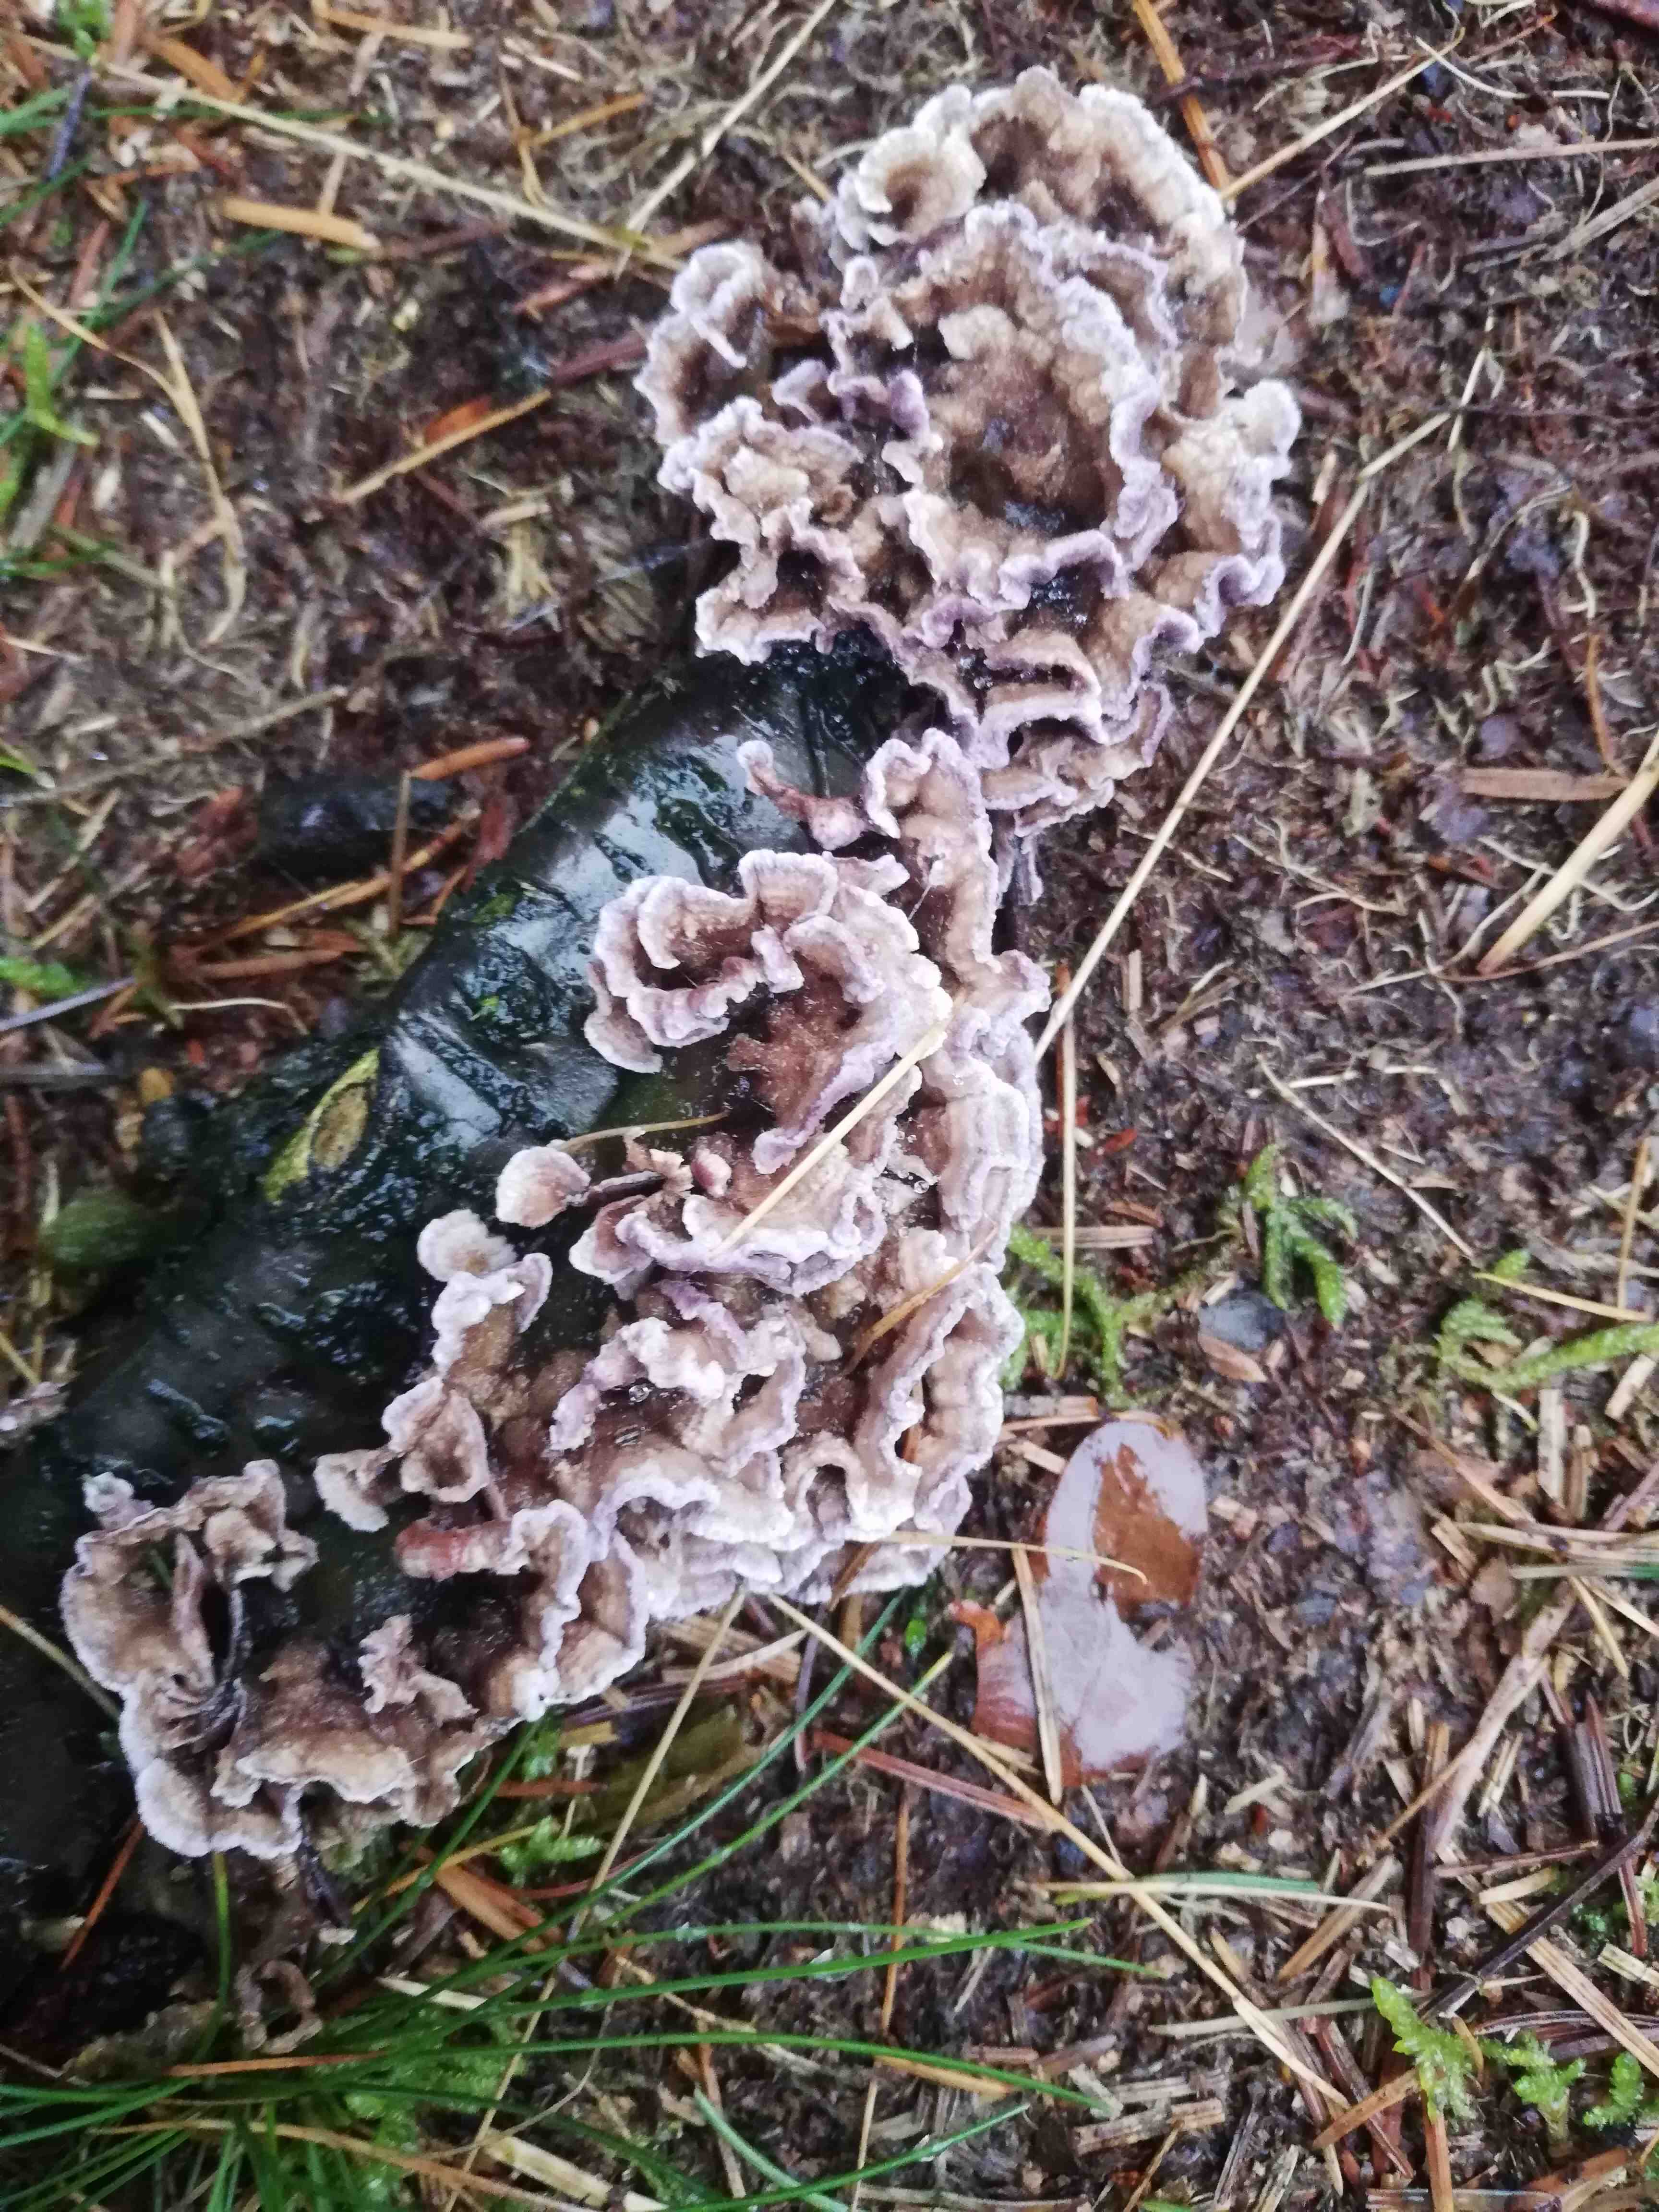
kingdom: Fungi
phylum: Basidiomycota
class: Agaricomycetes
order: Agaricales
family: Cyphellaceae
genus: Chondrostereum
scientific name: Chondrostereum purpureum
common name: purpurlædersvamp
